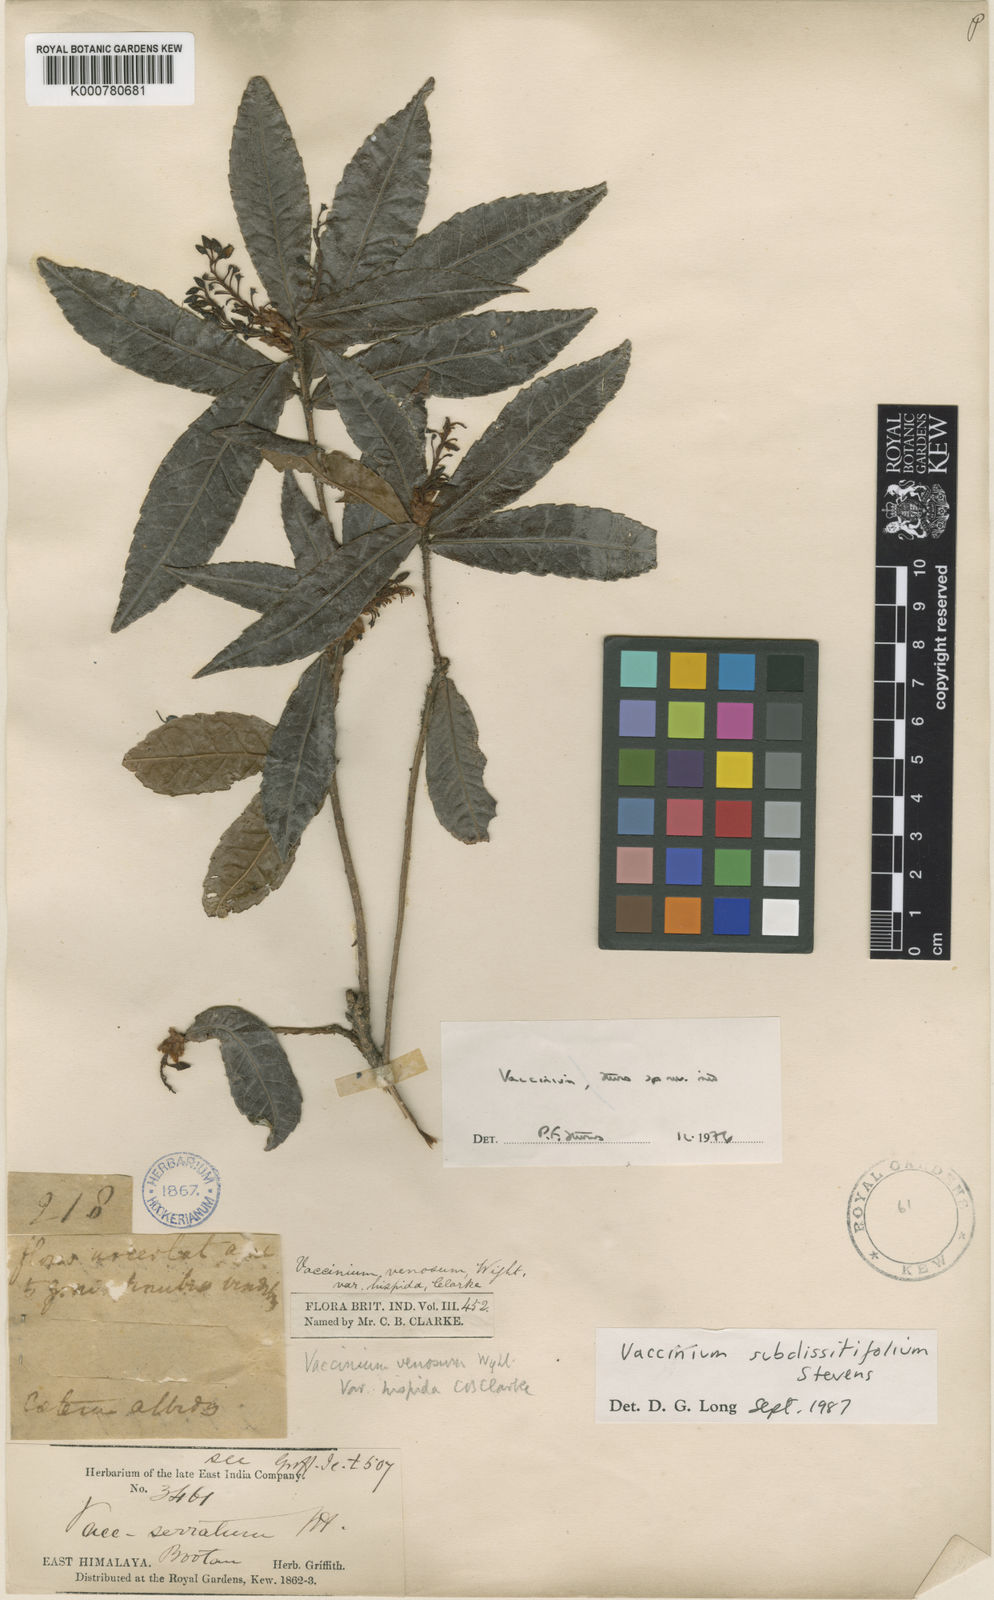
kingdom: Plantae
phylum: Tracheophyta
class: Magnoliopsida
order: Ericales
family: Ericaceae
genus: Vaccinium
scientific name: Vaccinium subdissitifolium
